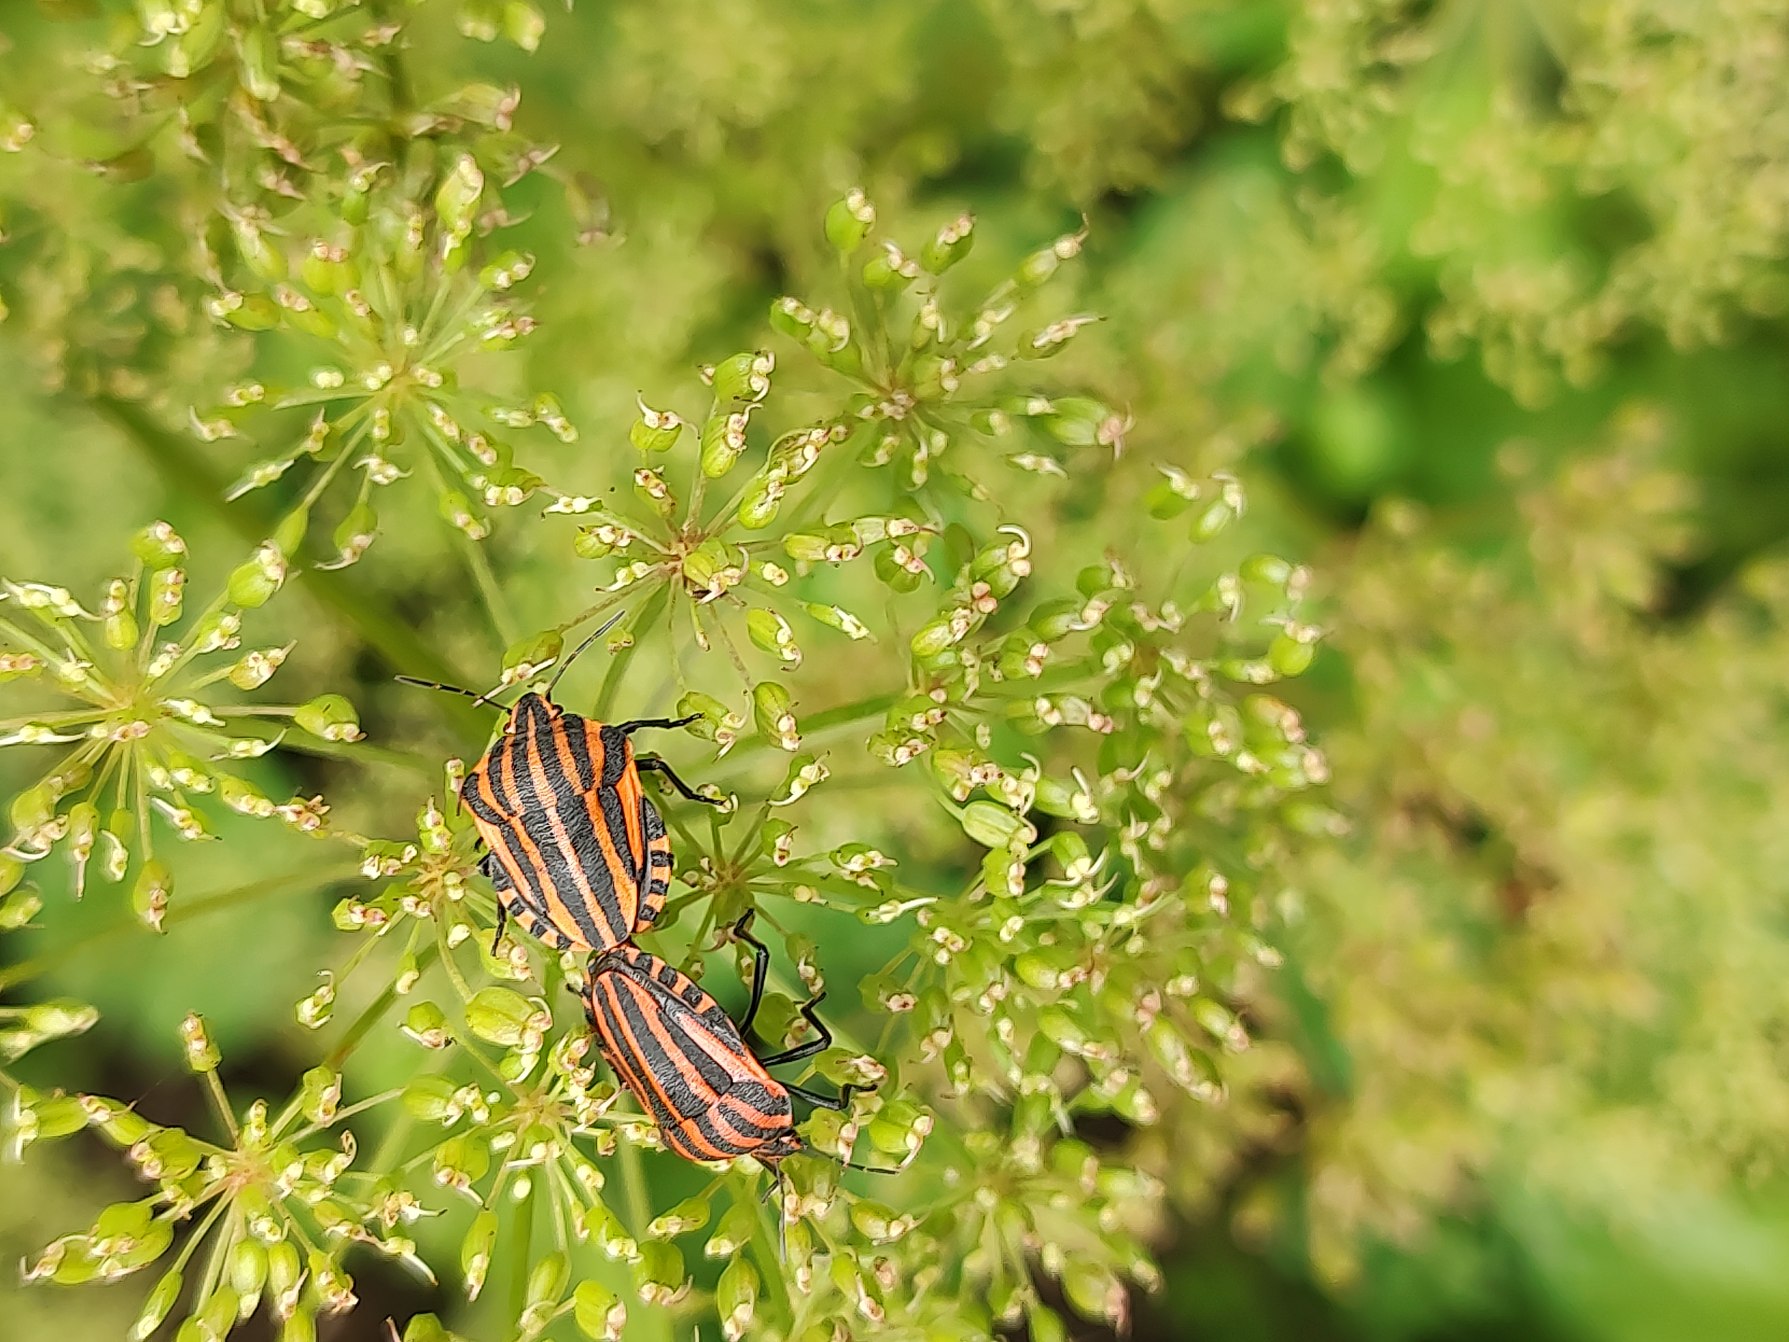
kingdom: Animalia
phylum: Arthropoda
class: Insecta
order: Hemiptera
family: Pentatomidae
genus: Graphosoma
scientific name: Graphosoma italicum
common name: Stribetæge
